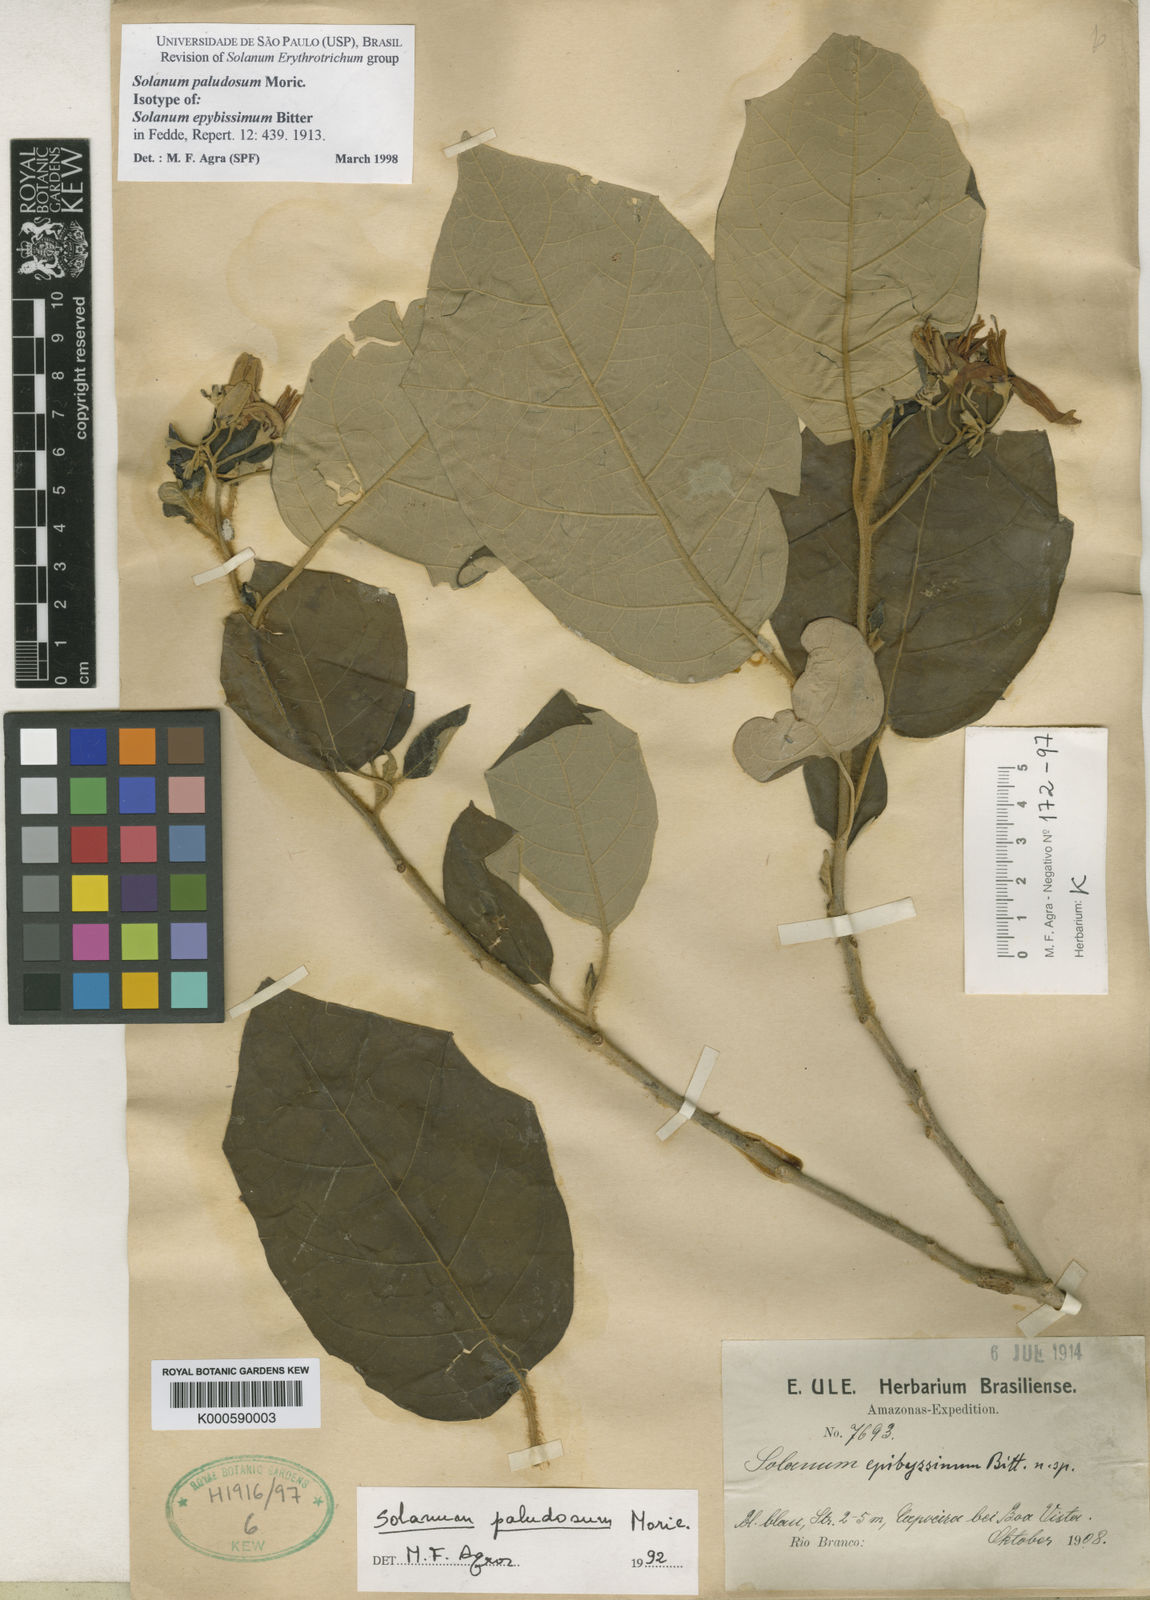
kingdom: Plantae
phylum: Tracheophyta
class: Magnoliopsida
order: Solanales
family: Solanaceae
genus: Solanum
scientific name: Solanum paludosum
